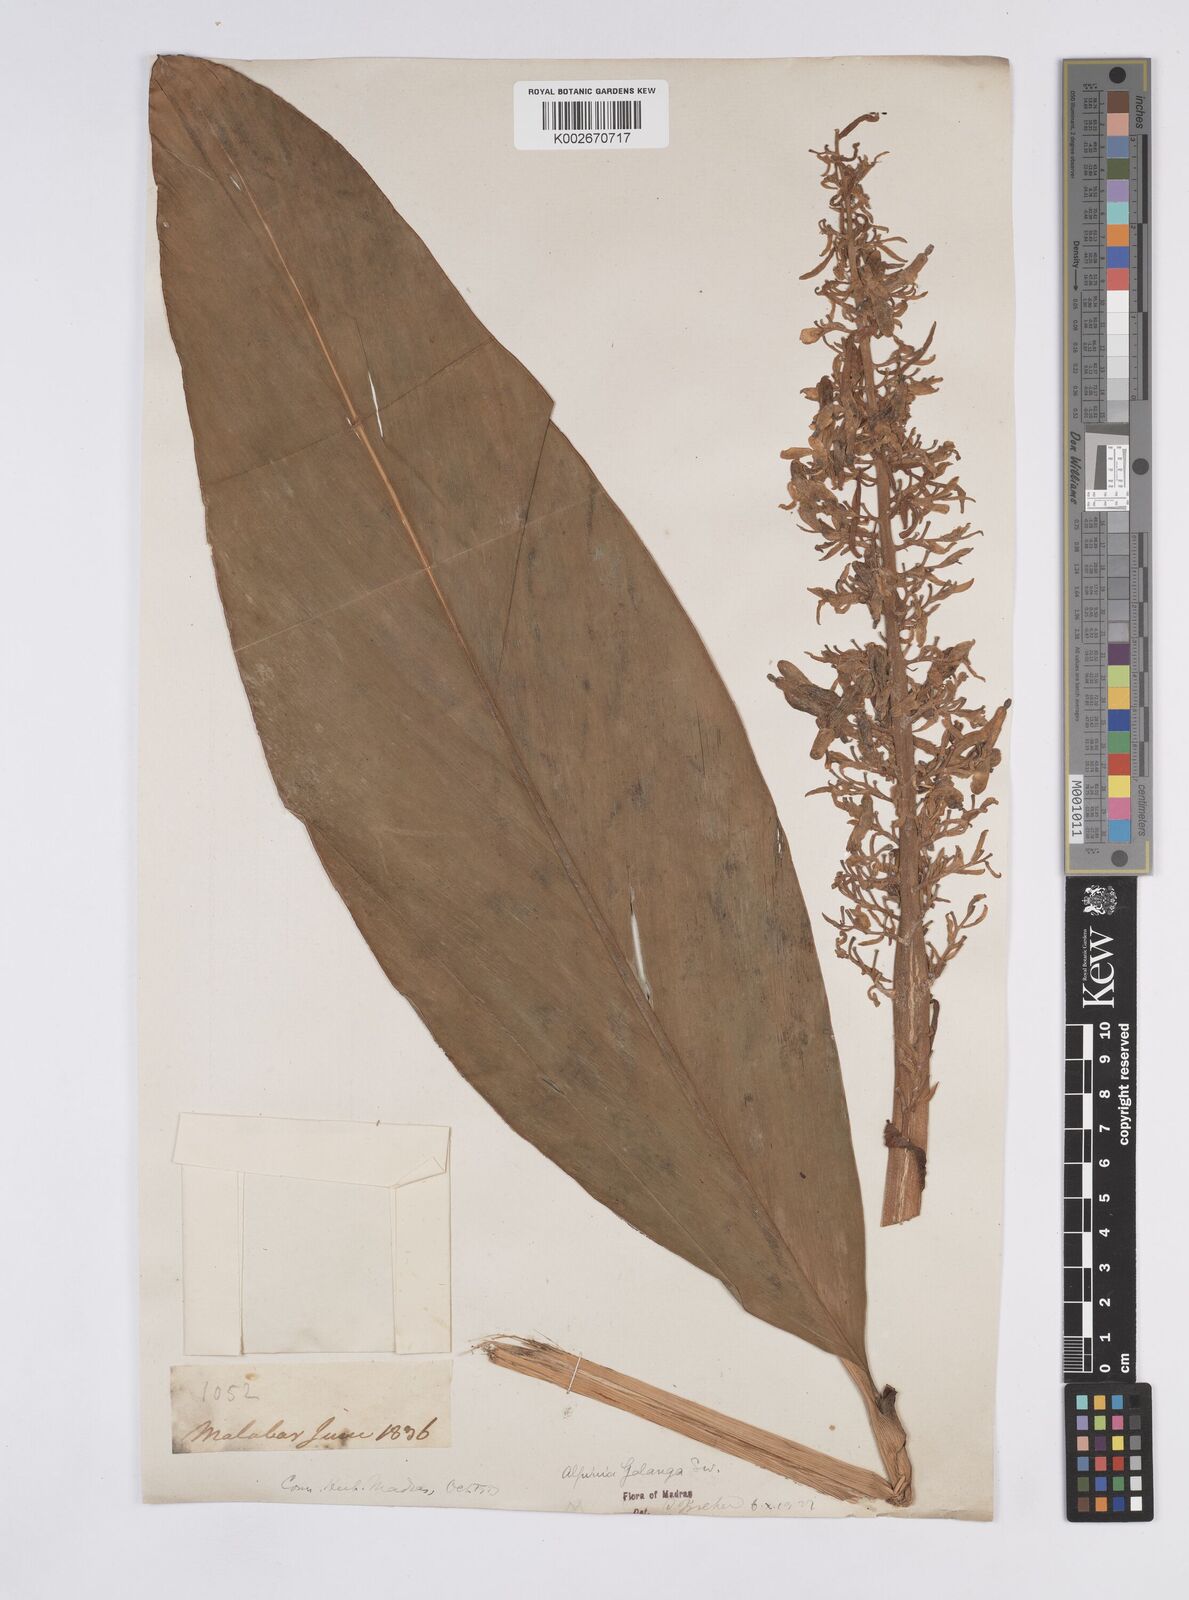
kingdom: Plantae
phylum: Tracheophyta
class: Liliopsida
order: Zingiberales
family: Zingiberaceae
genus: Alpinia
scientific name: Alpinia galanga
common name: Siamese-ginger
